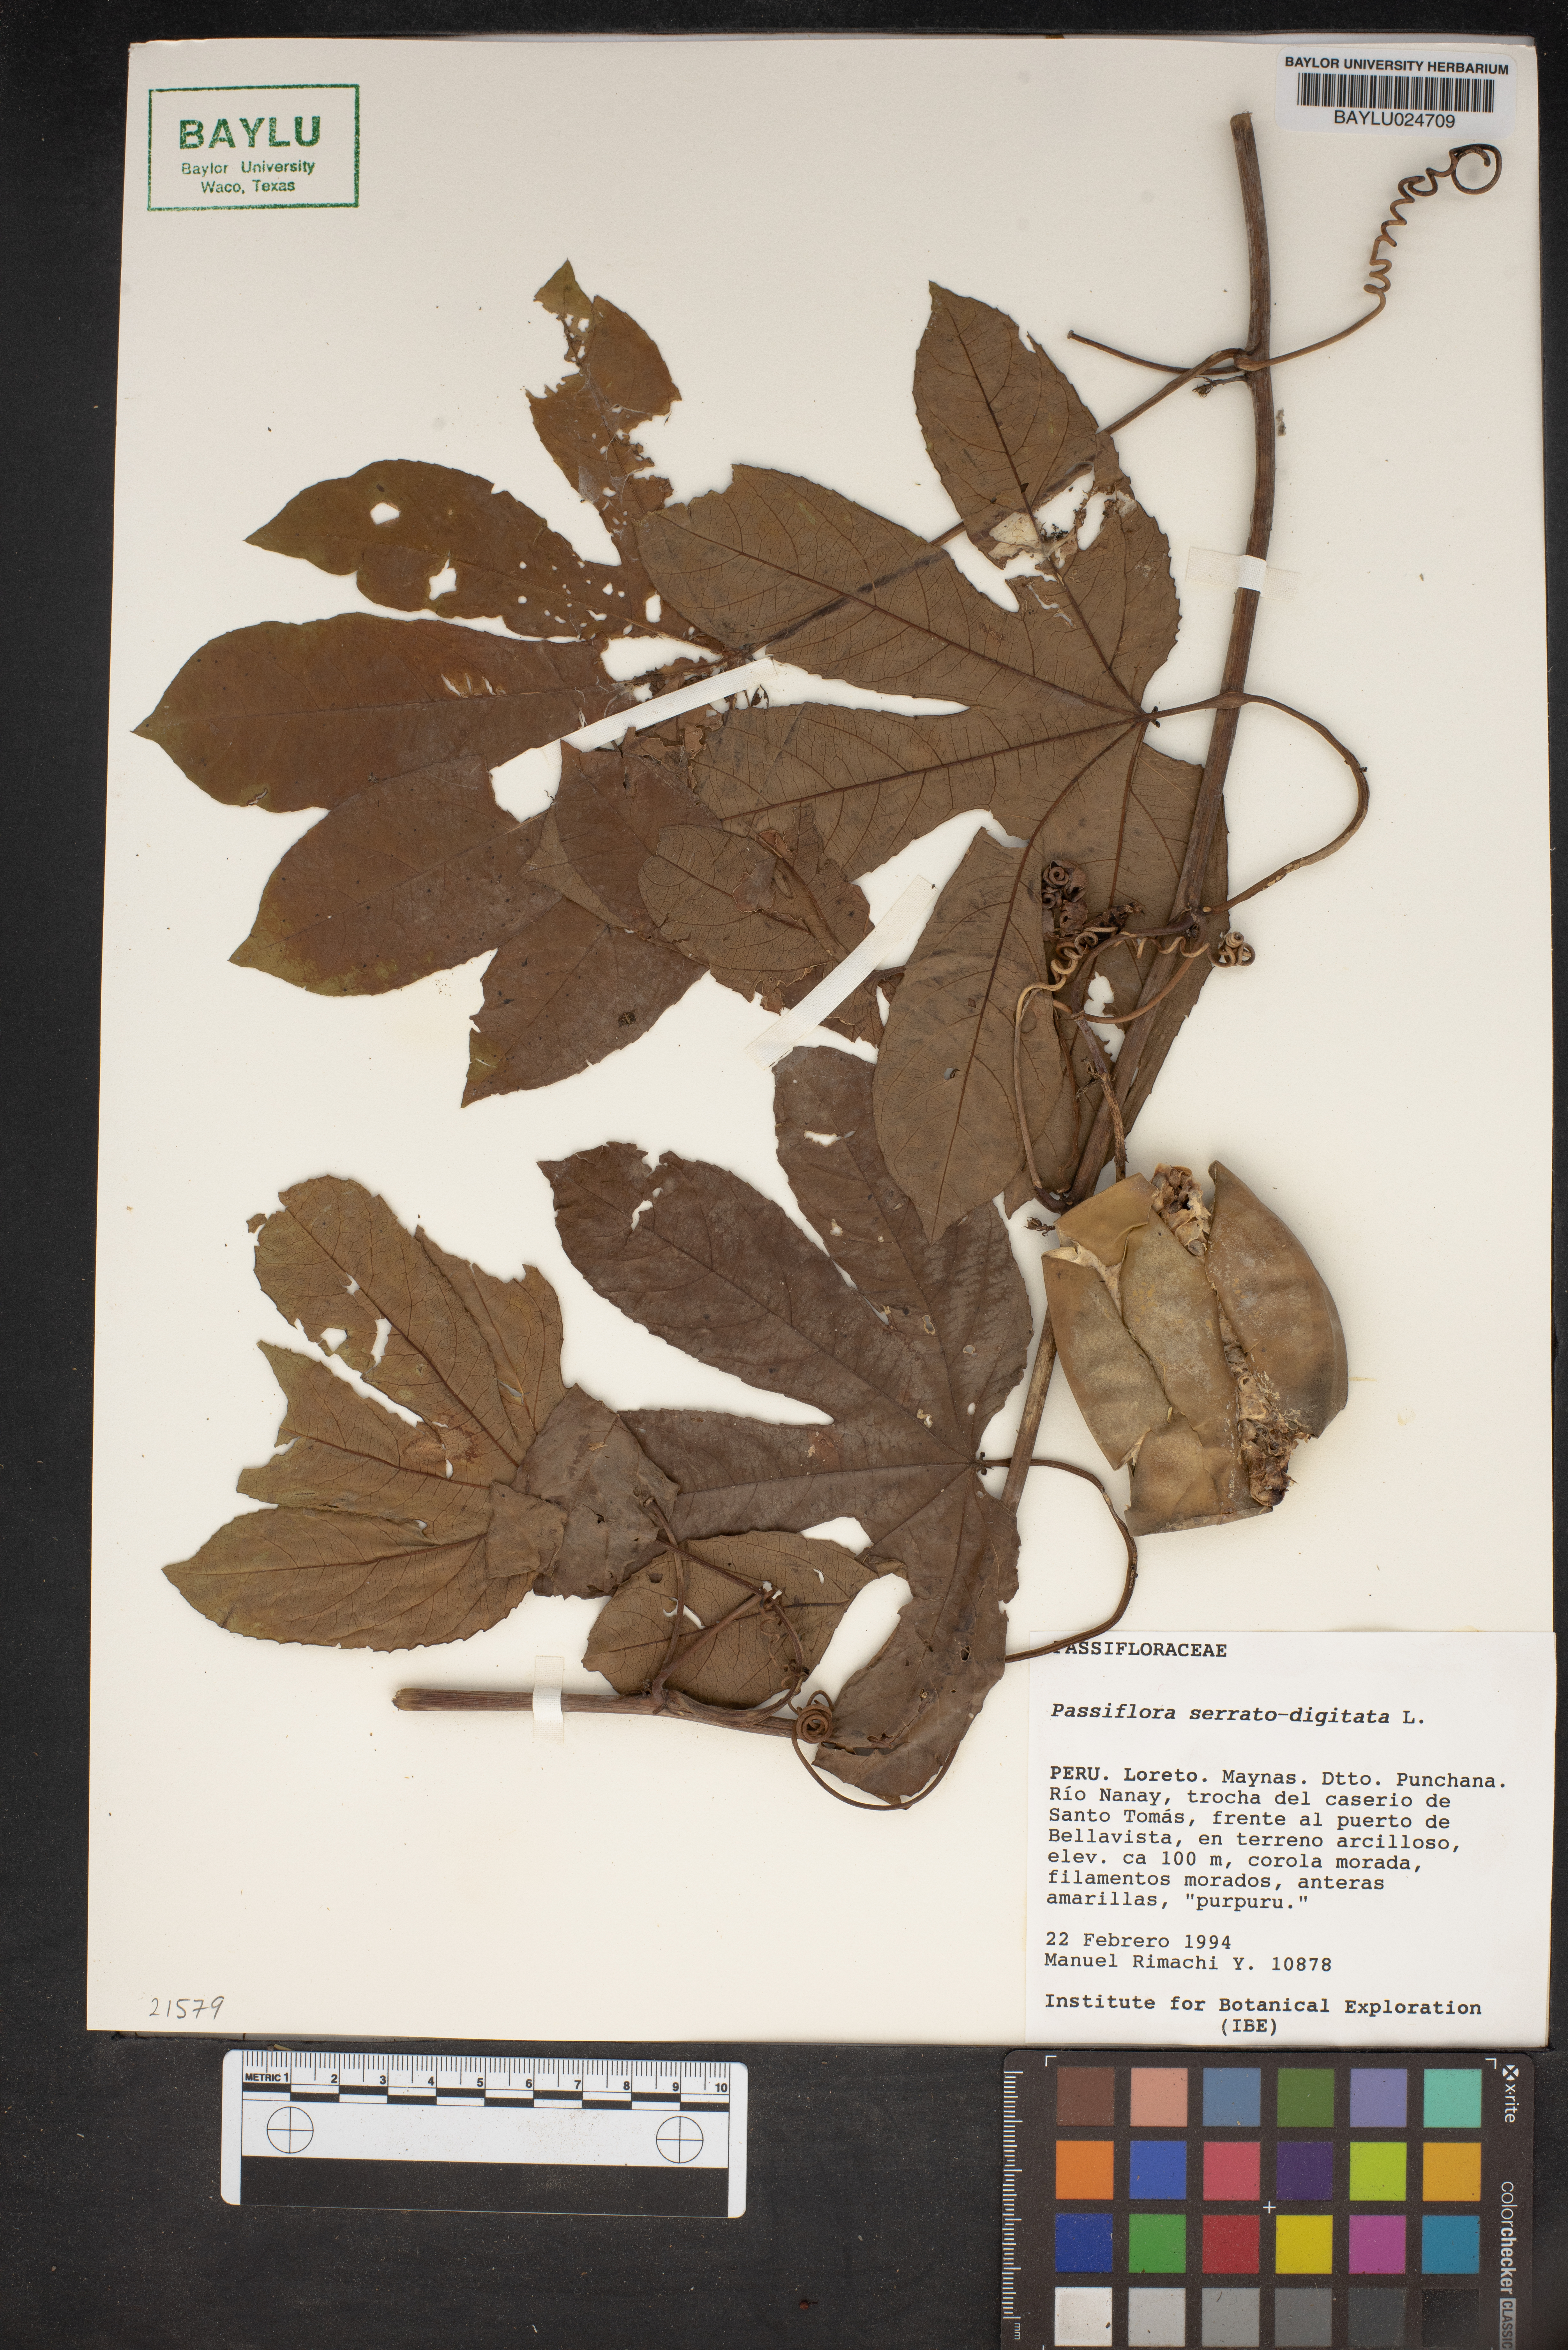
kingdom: Plantae
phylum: Tracheophyta
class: Magnoliopsida
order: Malpighiales
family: Passifloraceae
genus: Passiflora
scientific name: Passiflora serratodigitata
